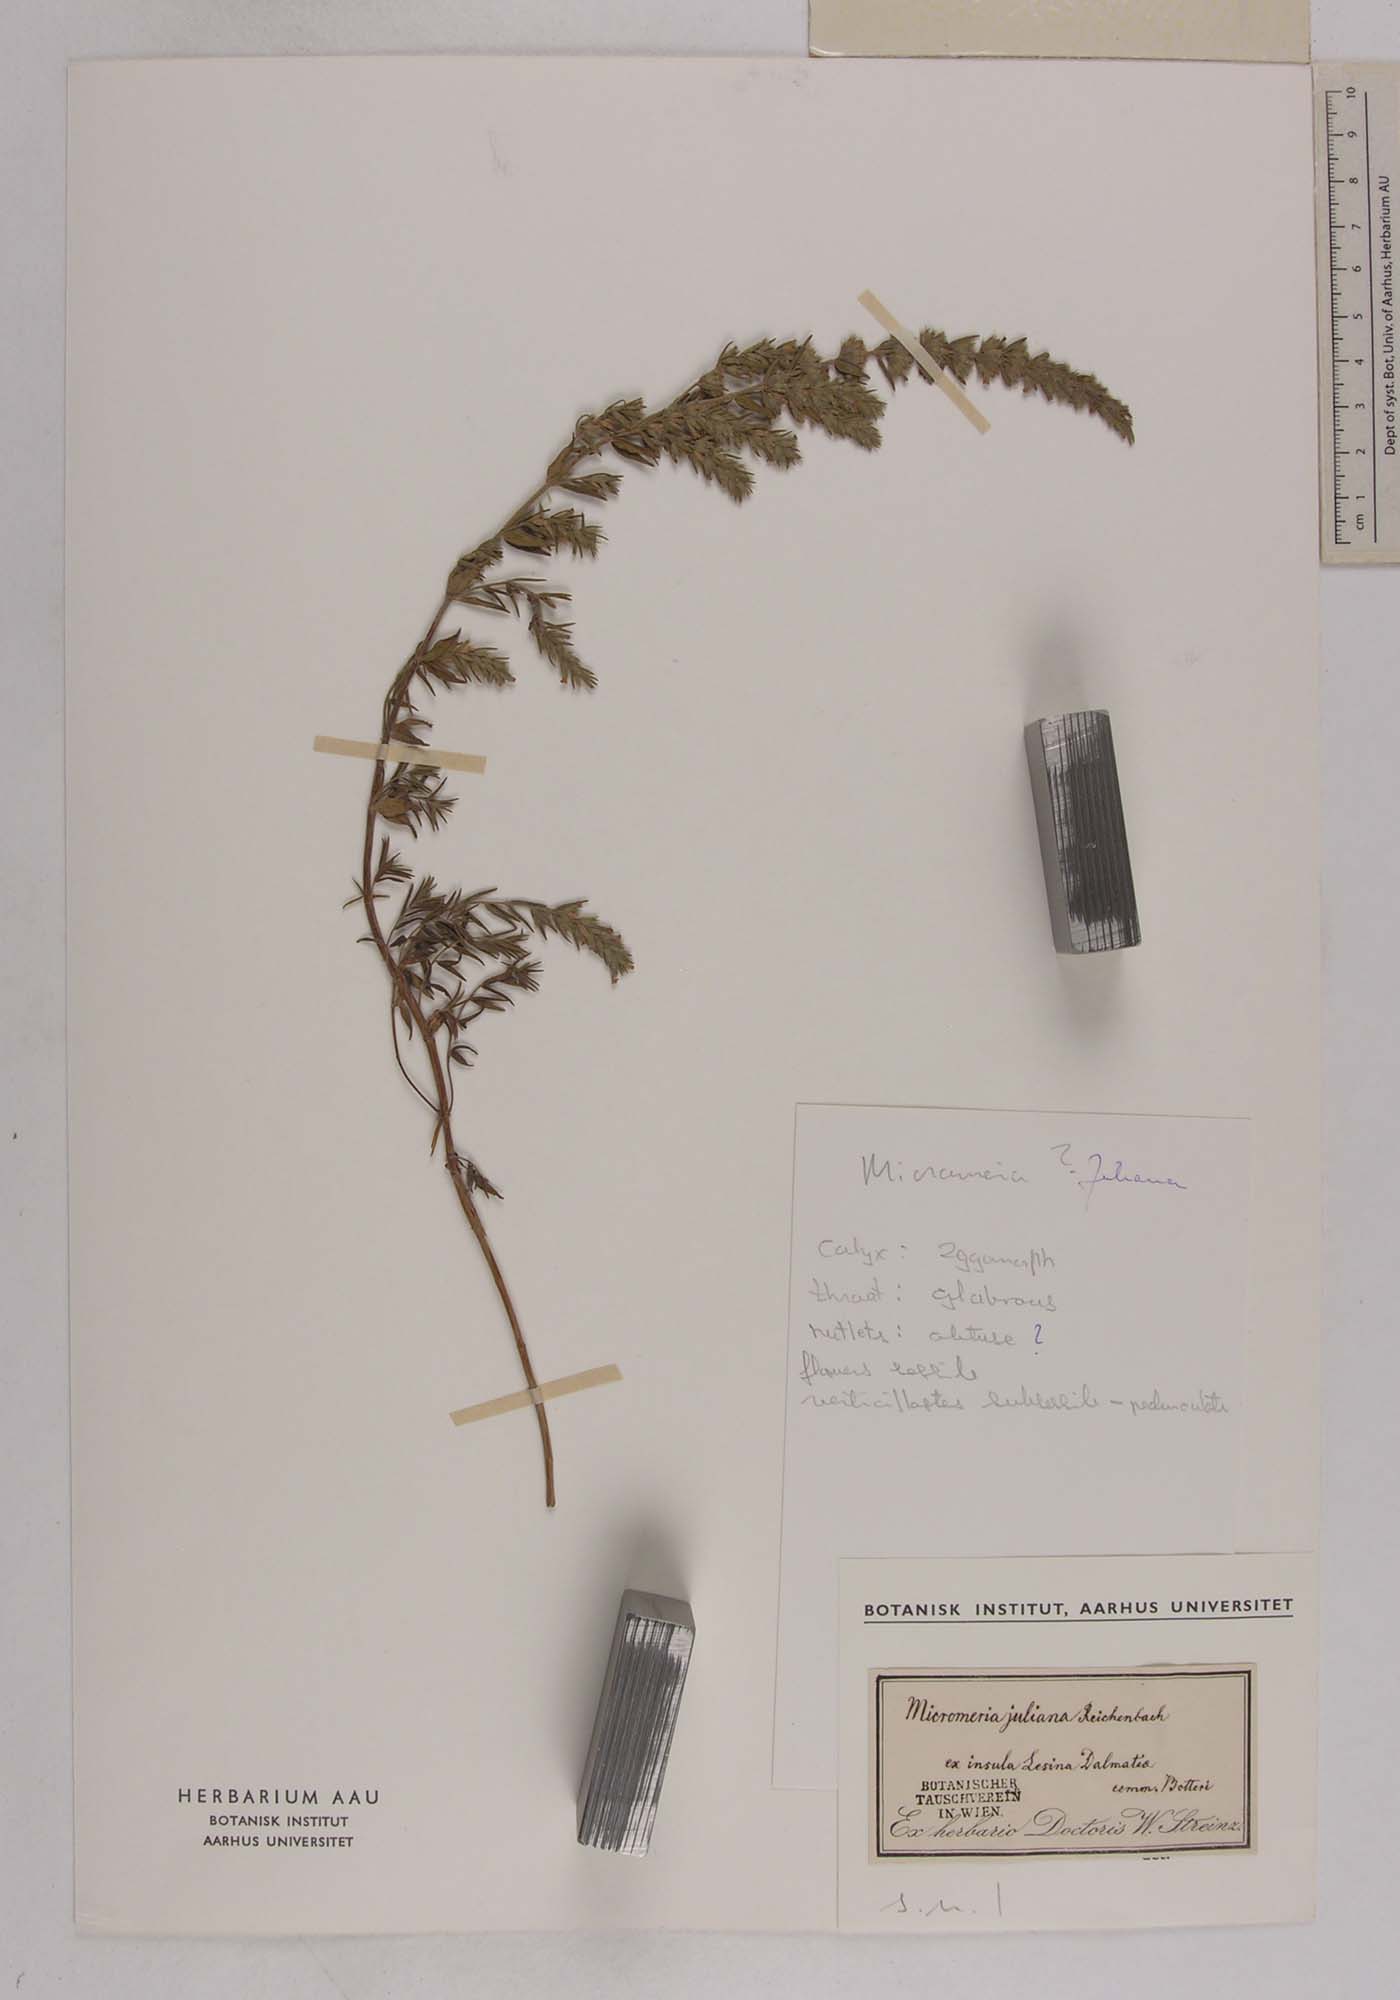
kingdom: Plantae
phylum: Tracheophyta
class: Magnoliopsida
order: Lamiales
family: Lamiaceae
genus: Micromeria
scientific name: Micromeria juliana
